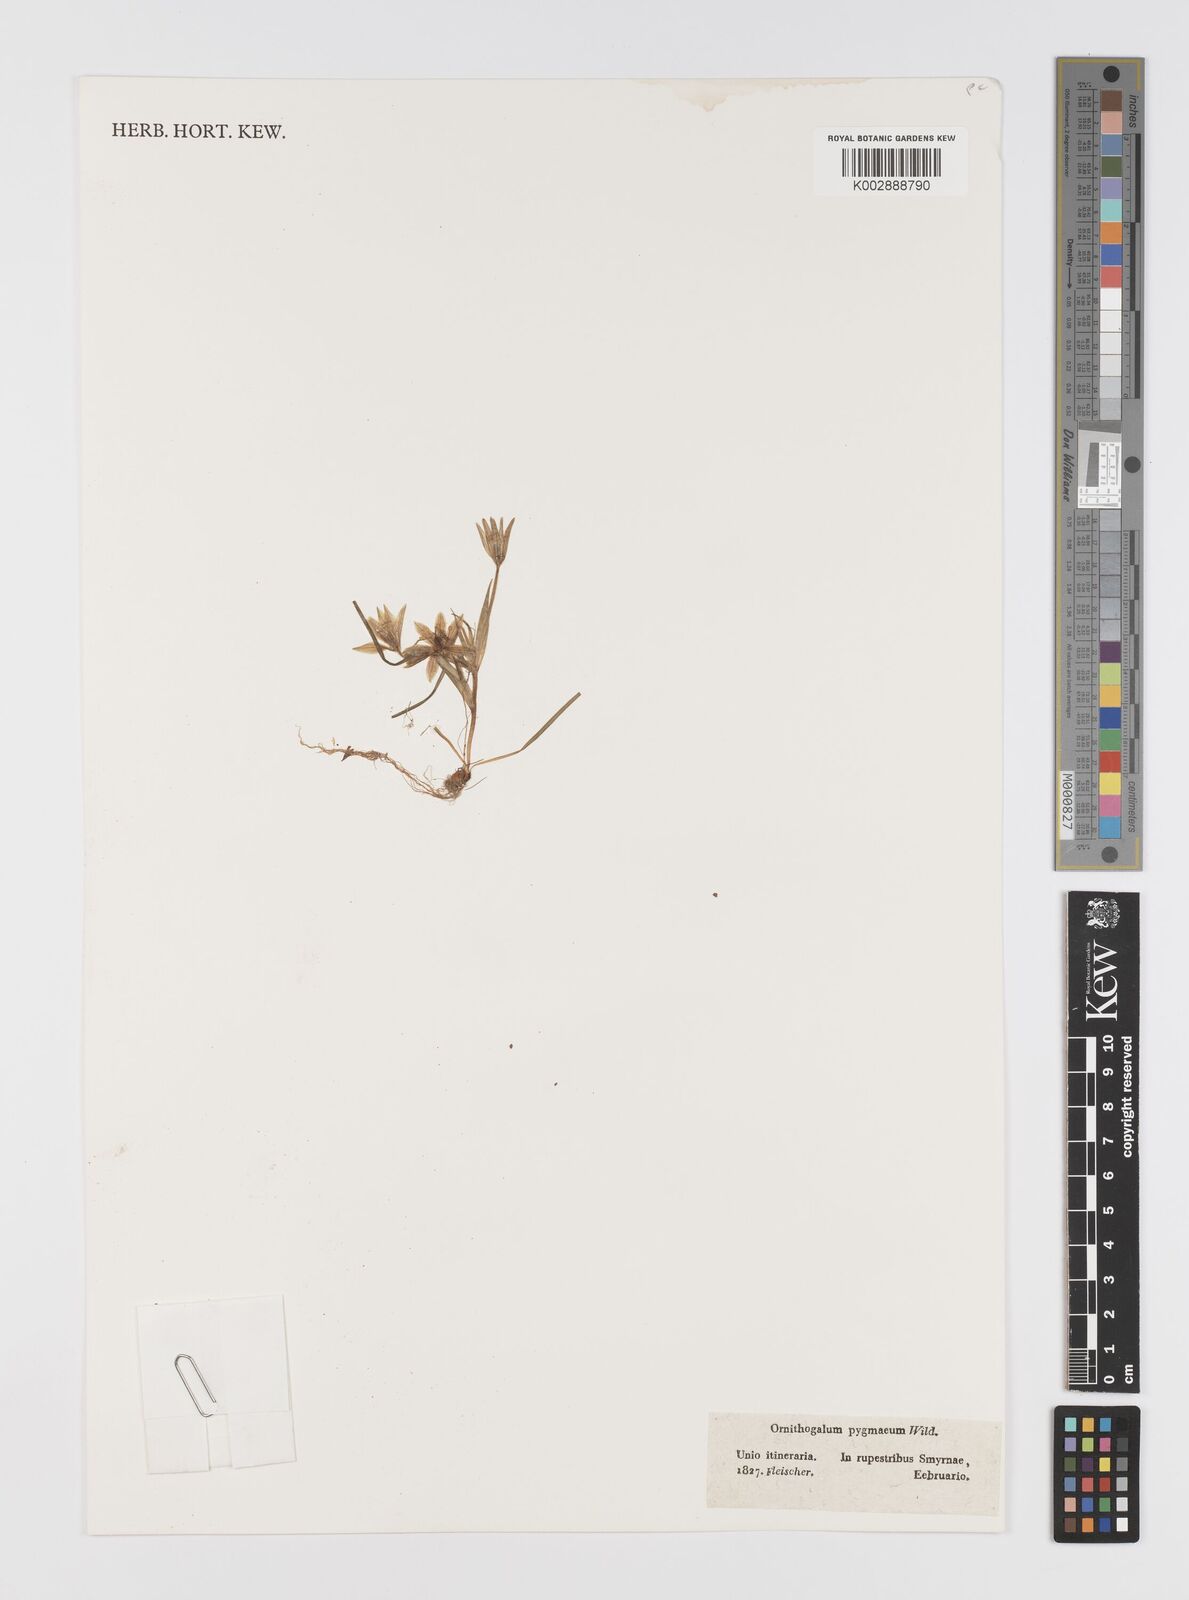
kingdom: Plantae
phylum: Tracheophyta
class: Liliopsida
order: Liliales
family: Liliaceae
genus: Gagea
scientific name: Gagea
